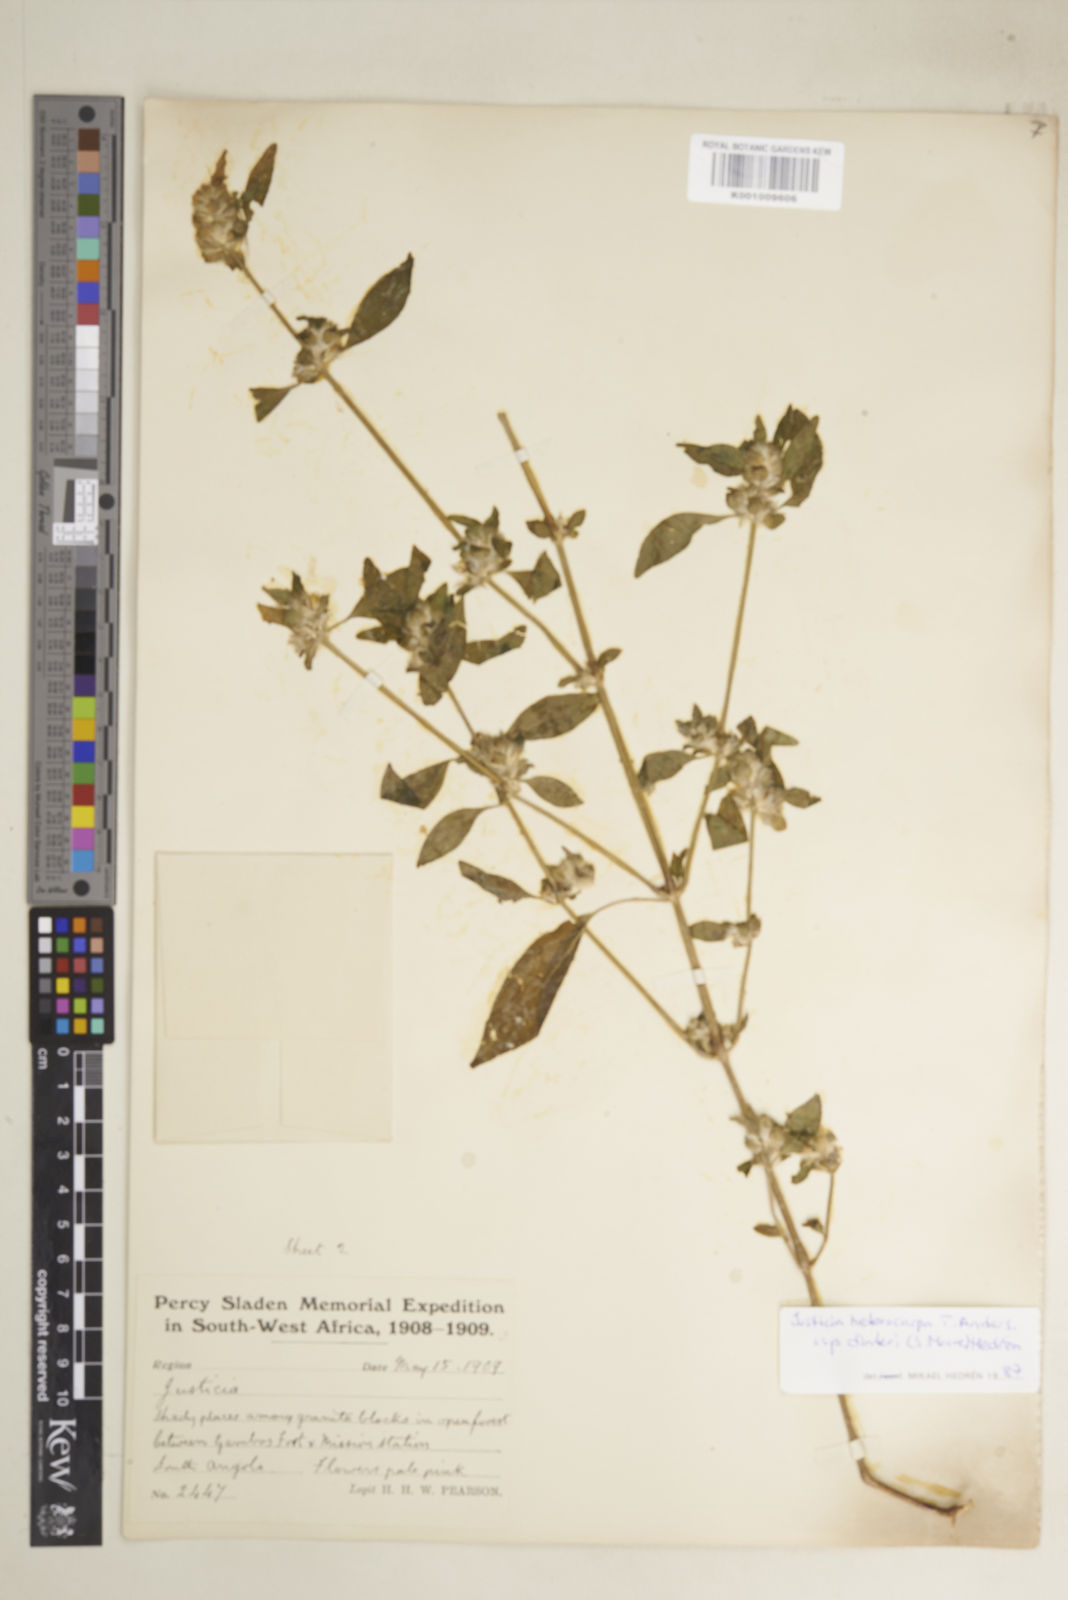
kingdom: Plantae
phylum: Tracheophyta
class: Magnoliopsida
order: Lamiales
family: Acanthaceae
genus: Justicia
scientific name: Justicia heterocarpa
